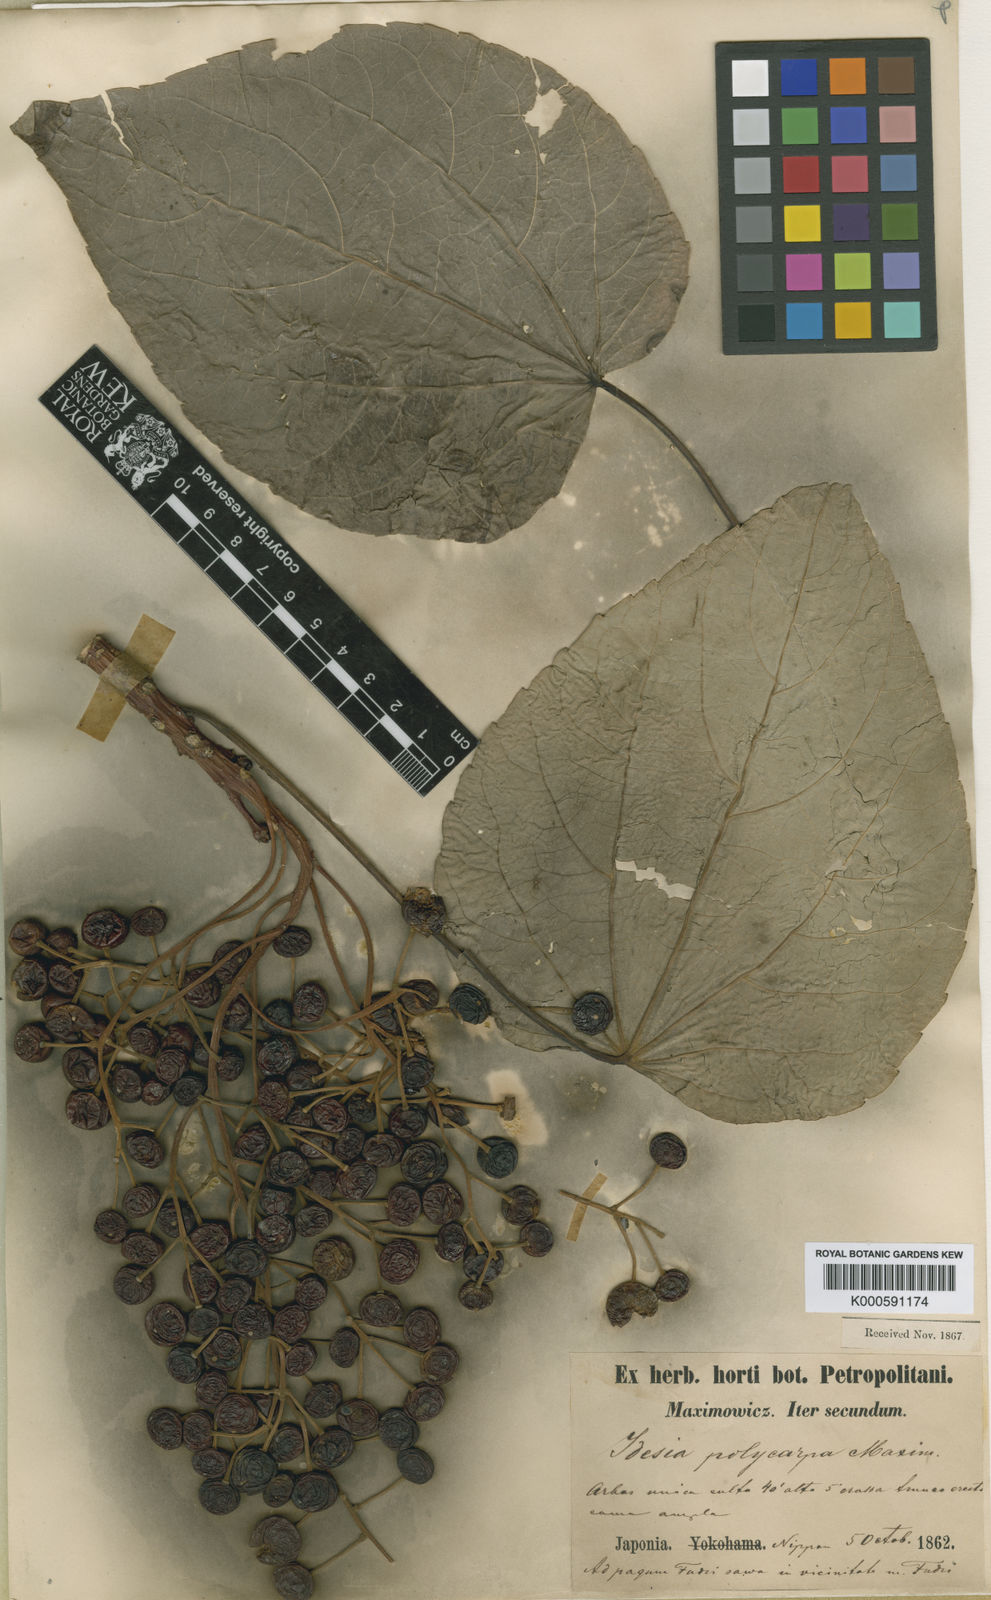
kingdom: Plantae
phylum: Tracheophyta
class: Magnoliopsida
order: Malpighiales
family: Salicaceae
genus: Idesia
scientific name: Idesia polycarpa
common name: Idesia tree
